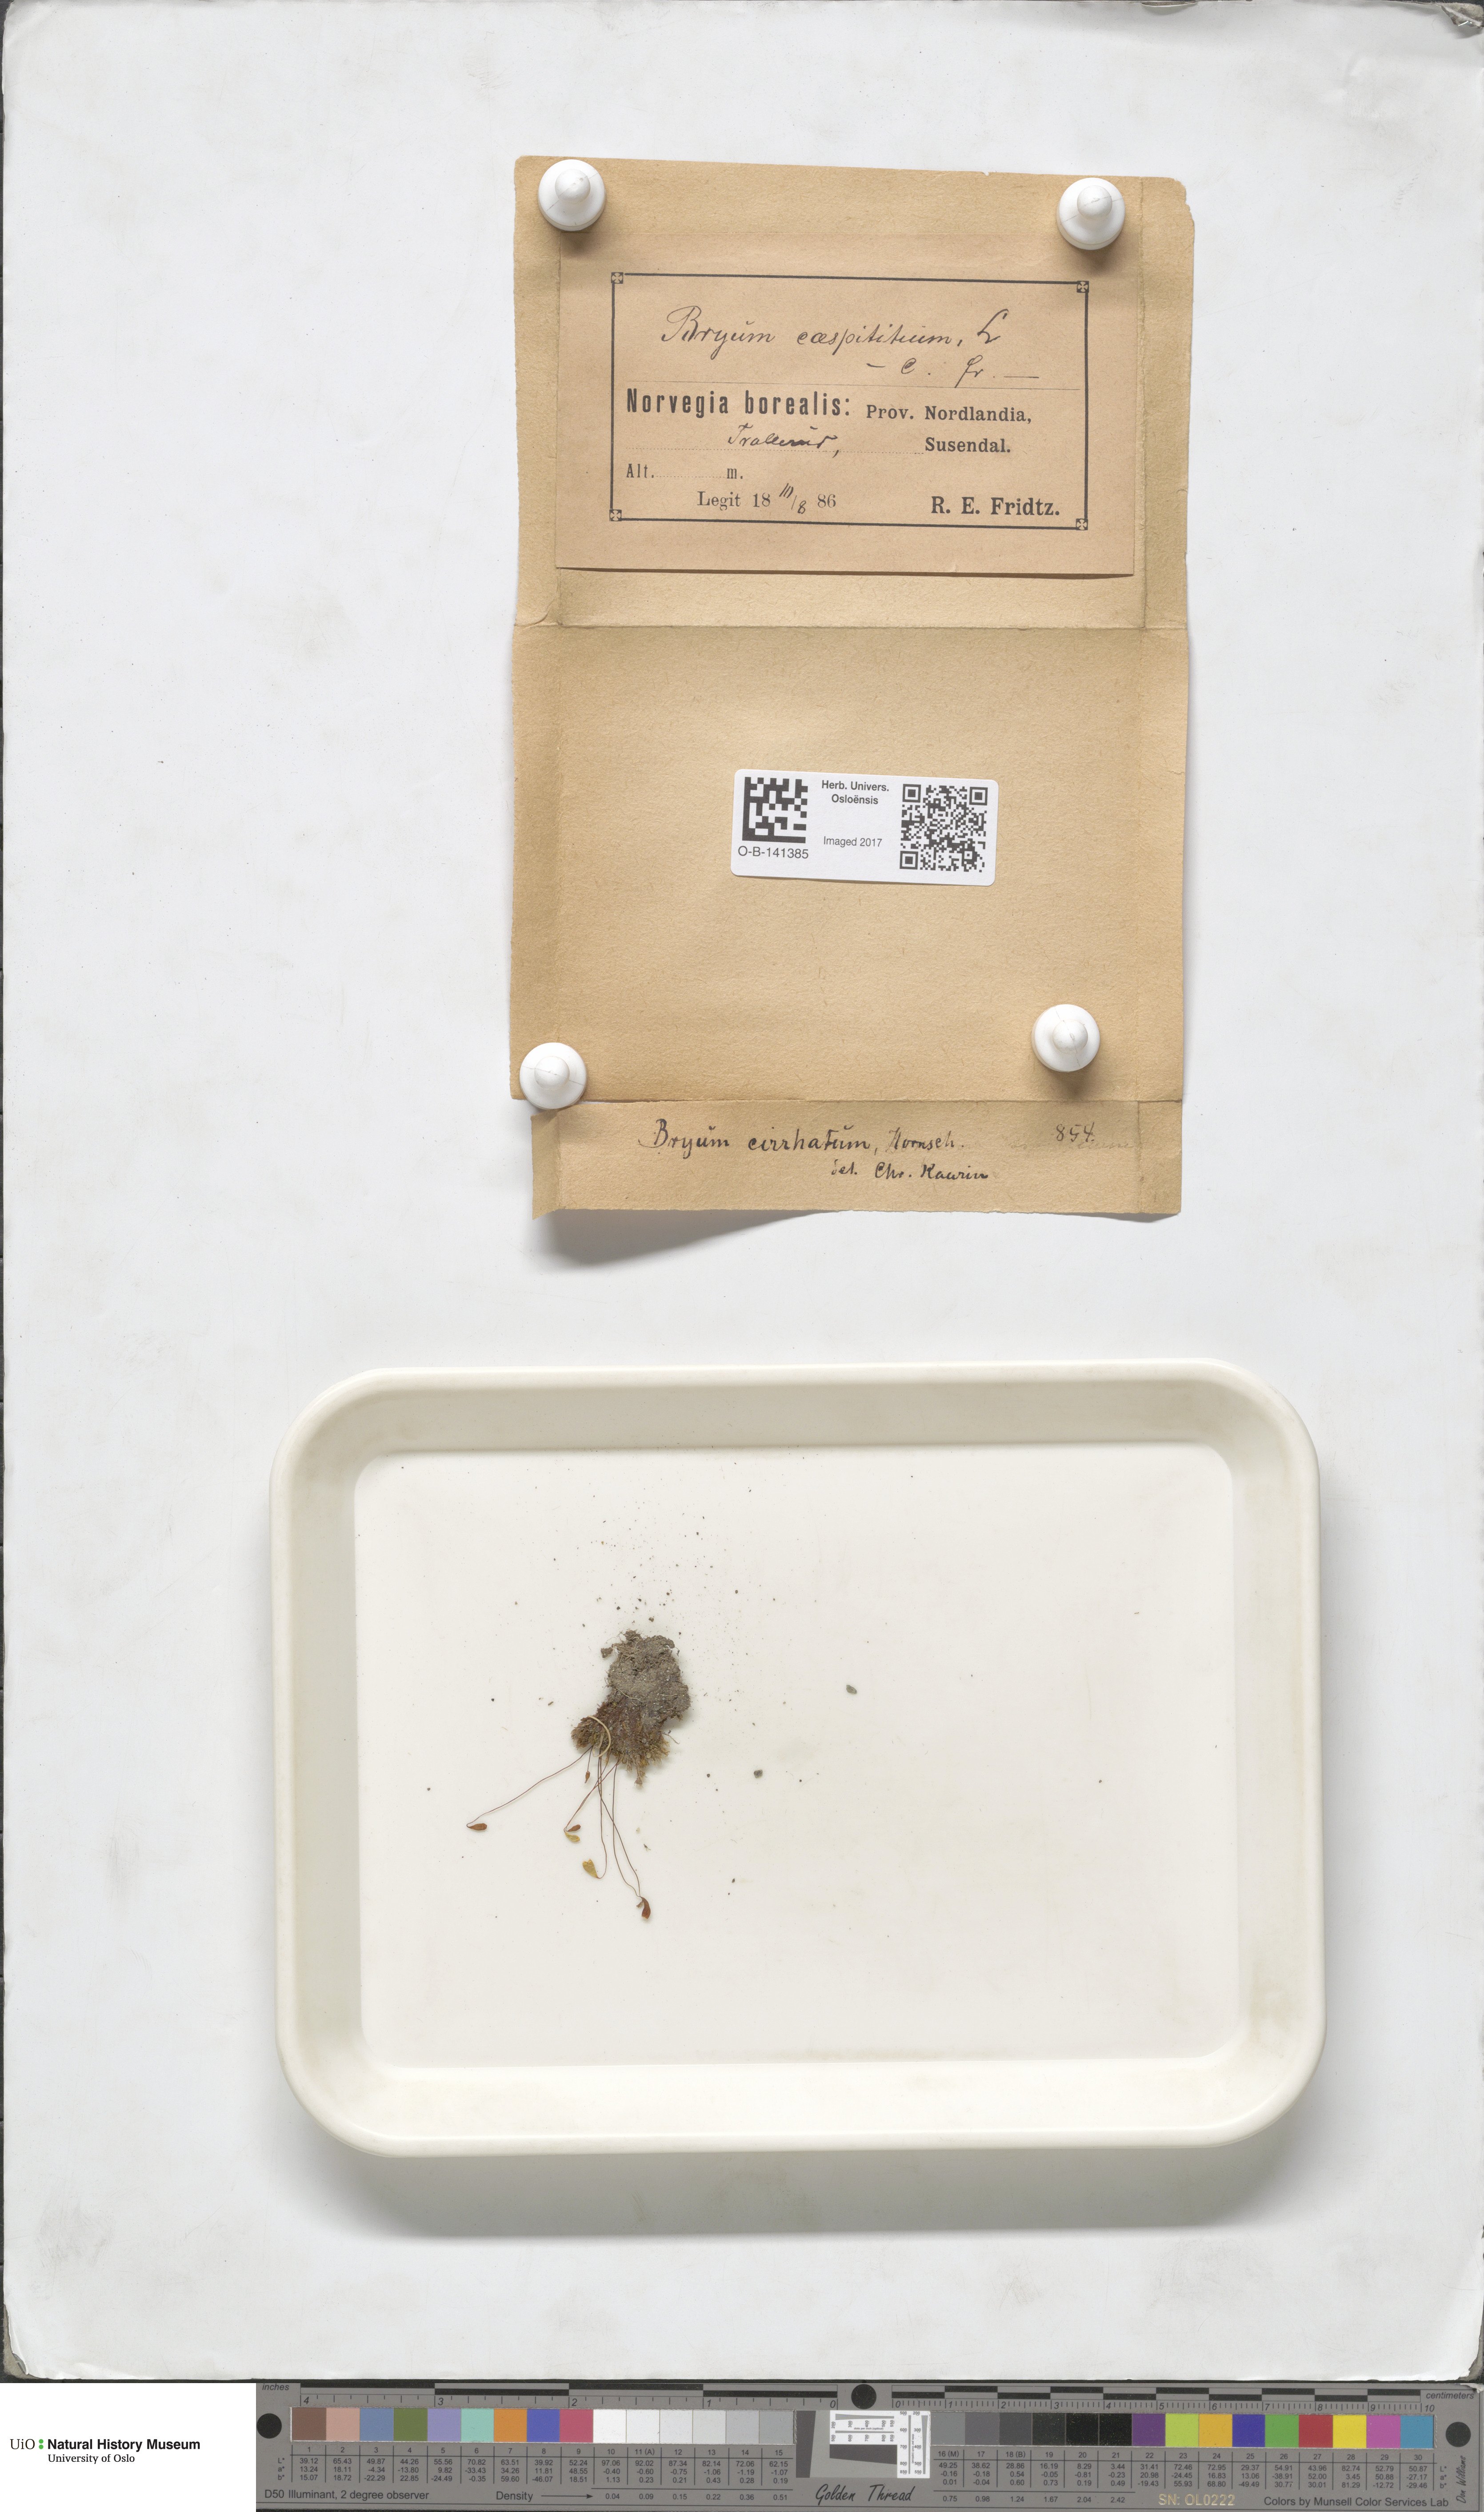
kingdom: Plantae
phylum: Bryophyta
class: Bryopsida
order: Bryales
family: Bryaceae
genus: Ptychostomum
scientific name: Ptychostomum pallescens
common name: Tall-clustered thread-moss
